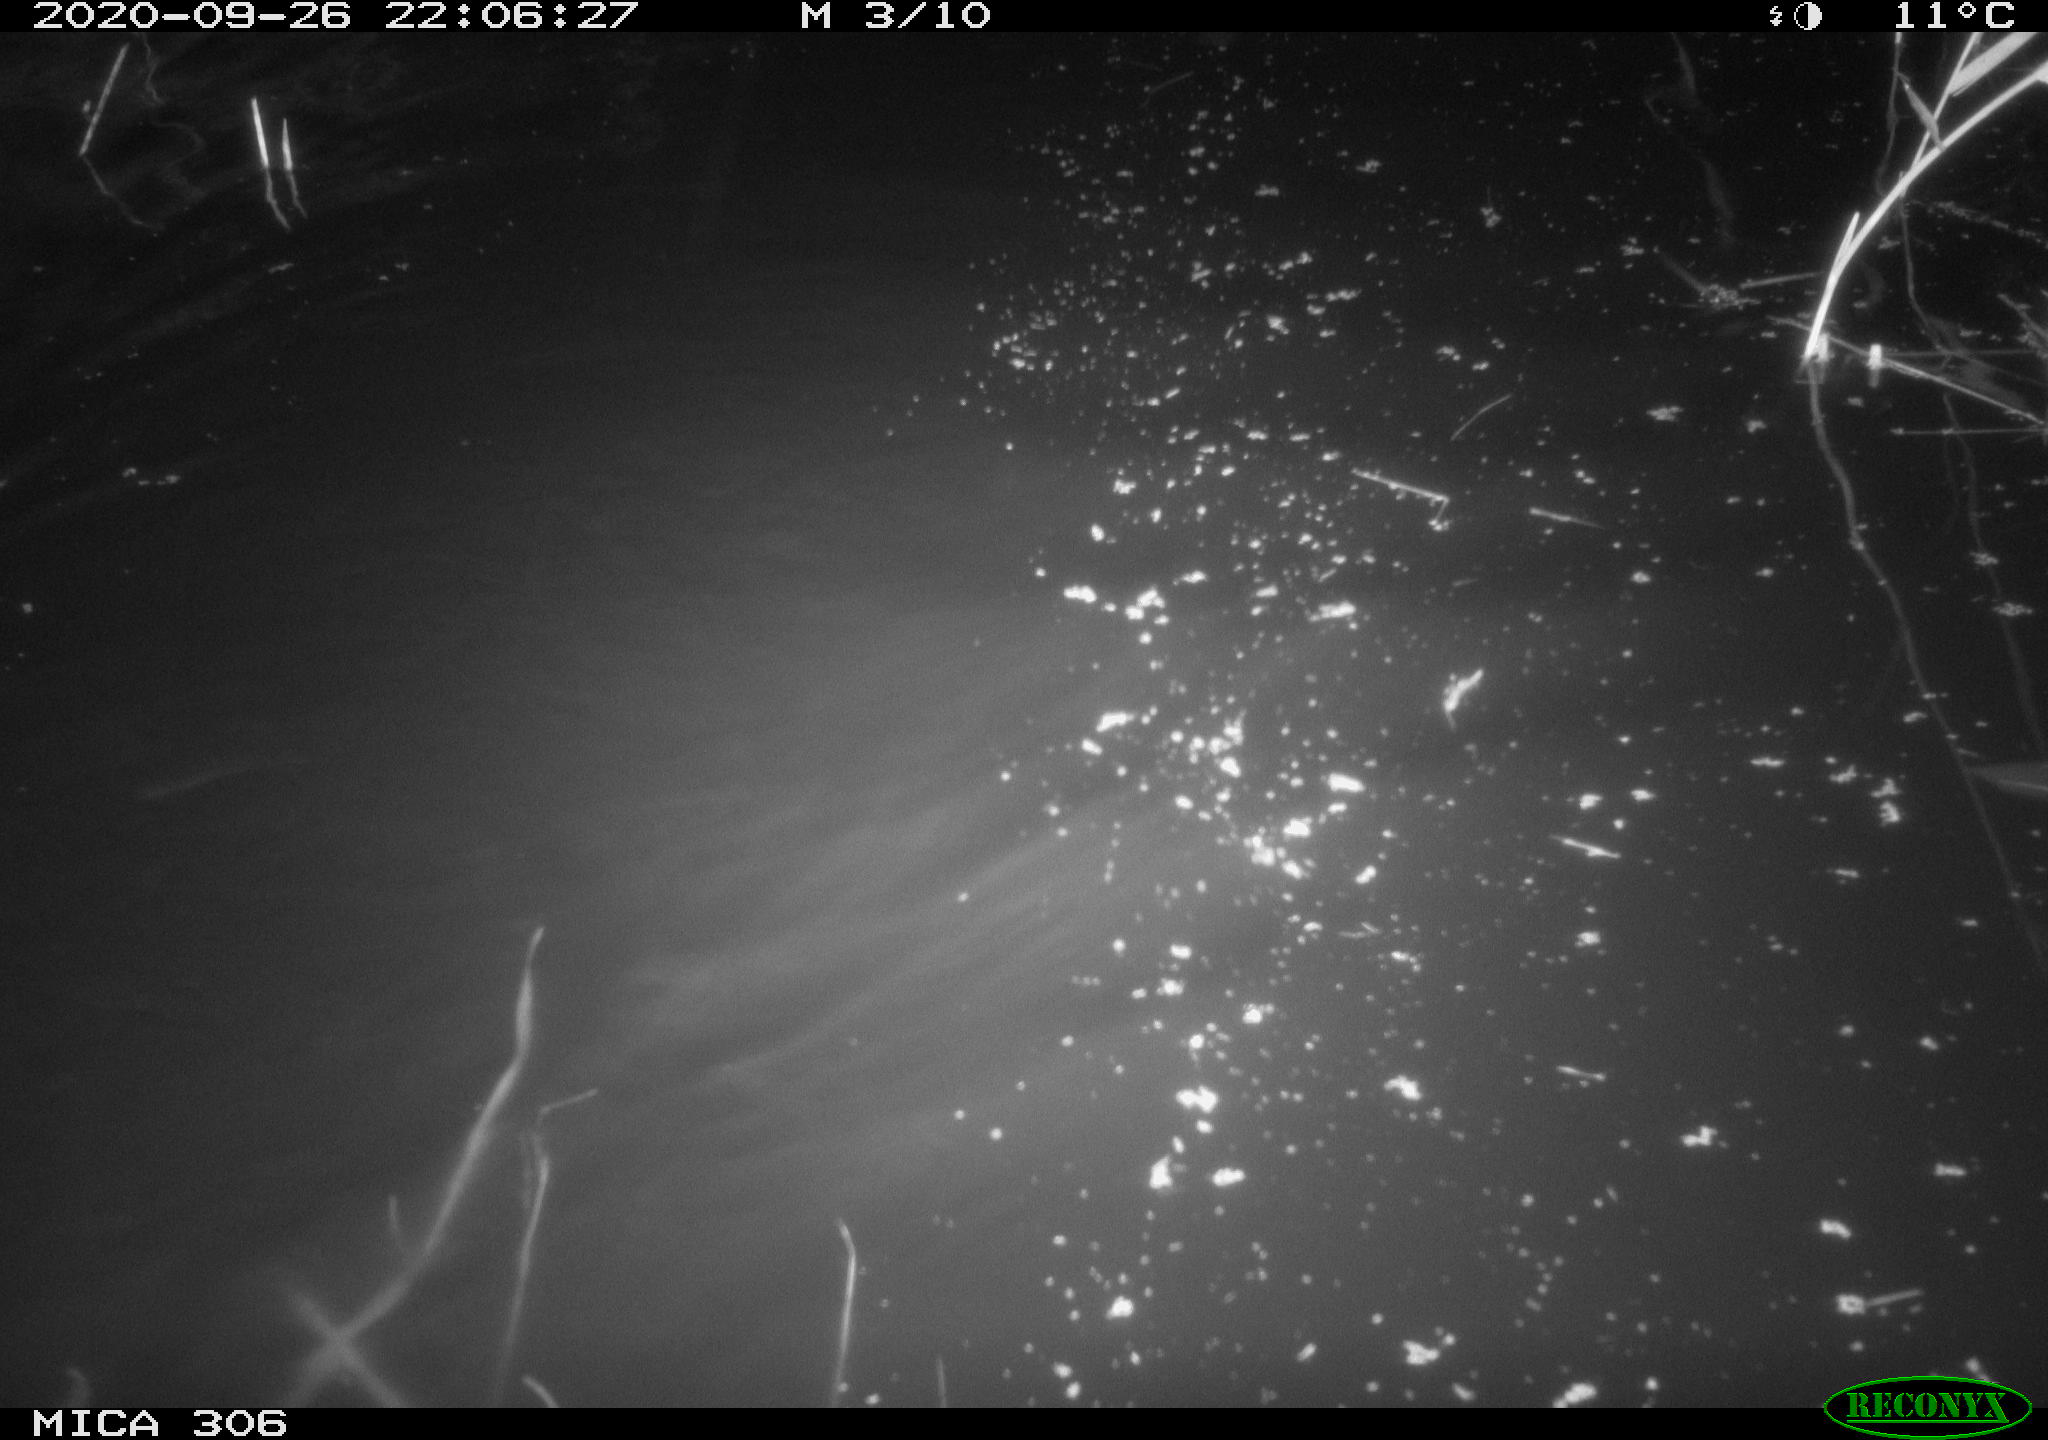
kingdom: Animalia
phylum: Chordata
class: Mammalia
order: Rodentia
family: Cricetidae
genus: Ondatra
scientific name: Ondatra zibethicus
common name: Muskrat
